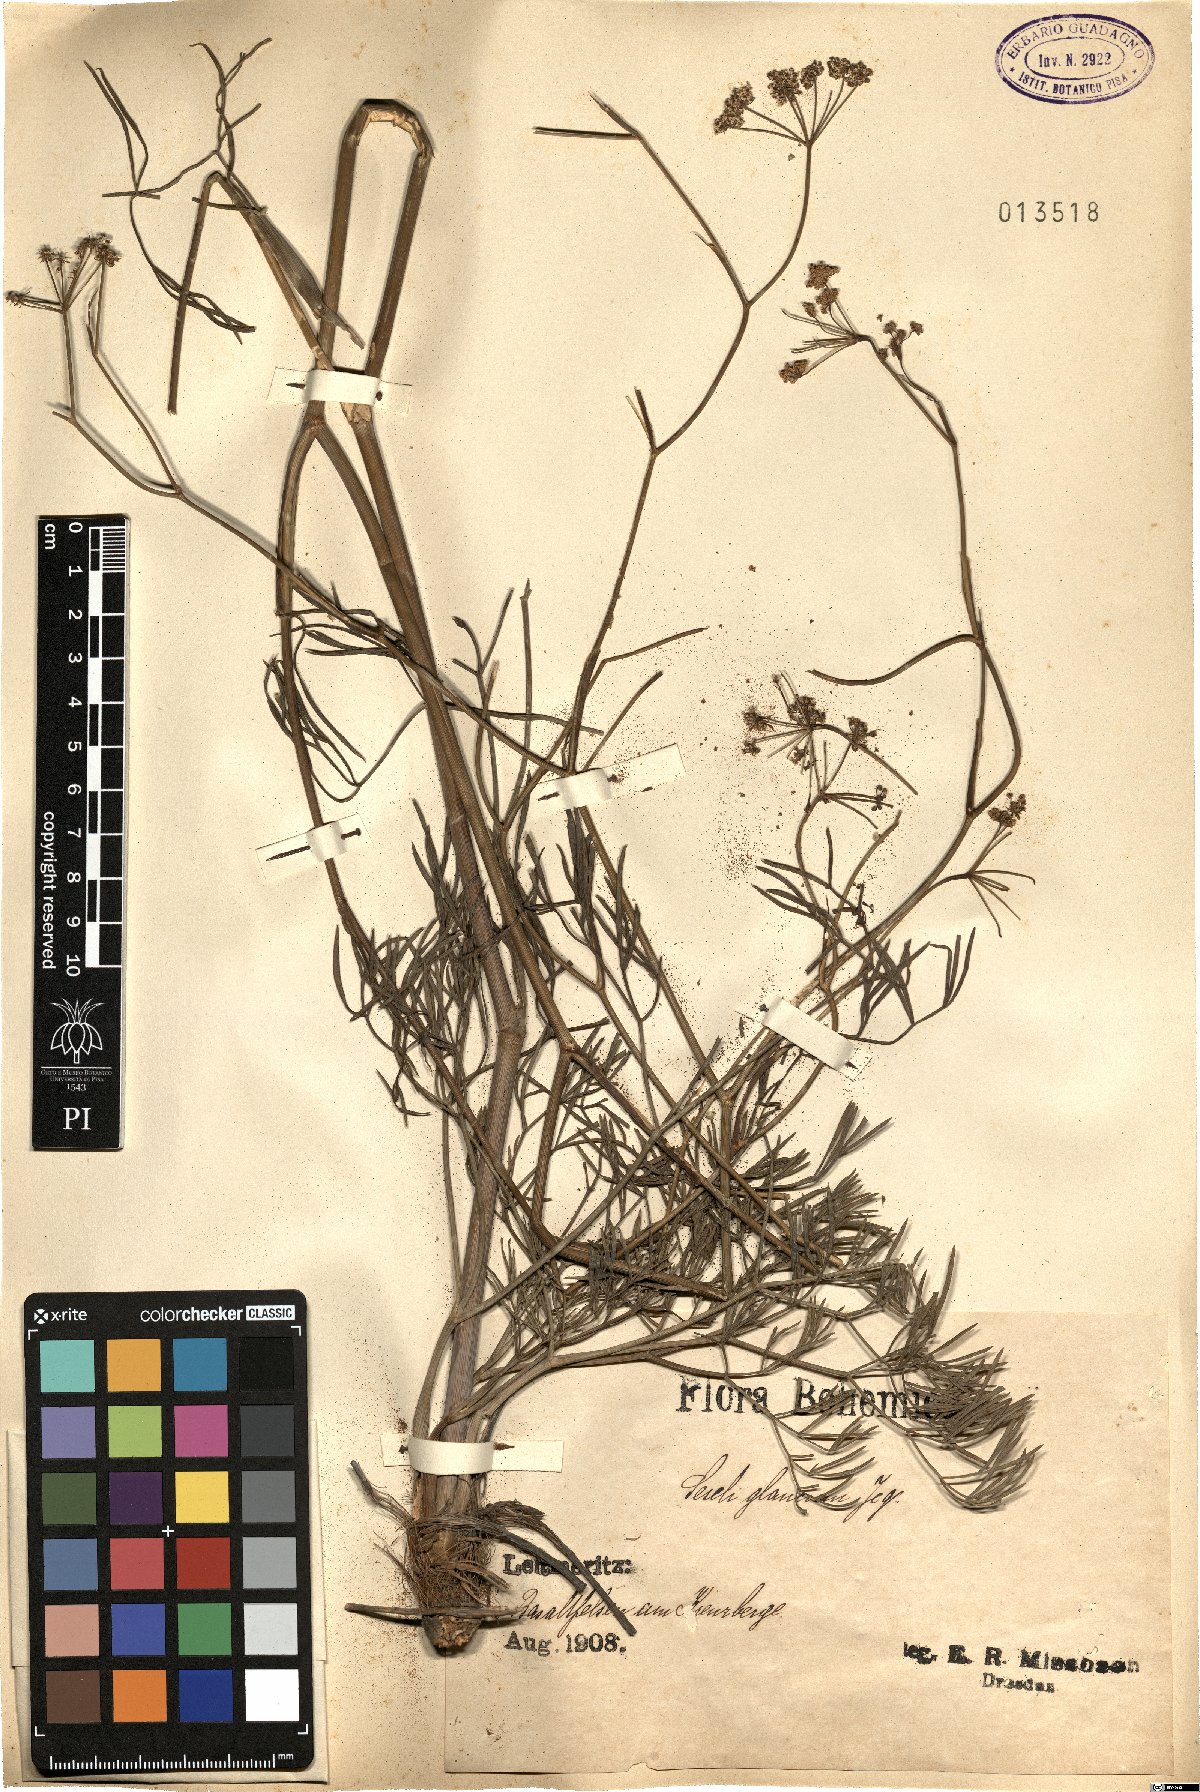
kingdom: Plantae
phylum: Tracheophyta
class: Magnoliopsida
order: Apiales
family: Apiaceae
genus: Seseli
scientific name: Seseli montanum
